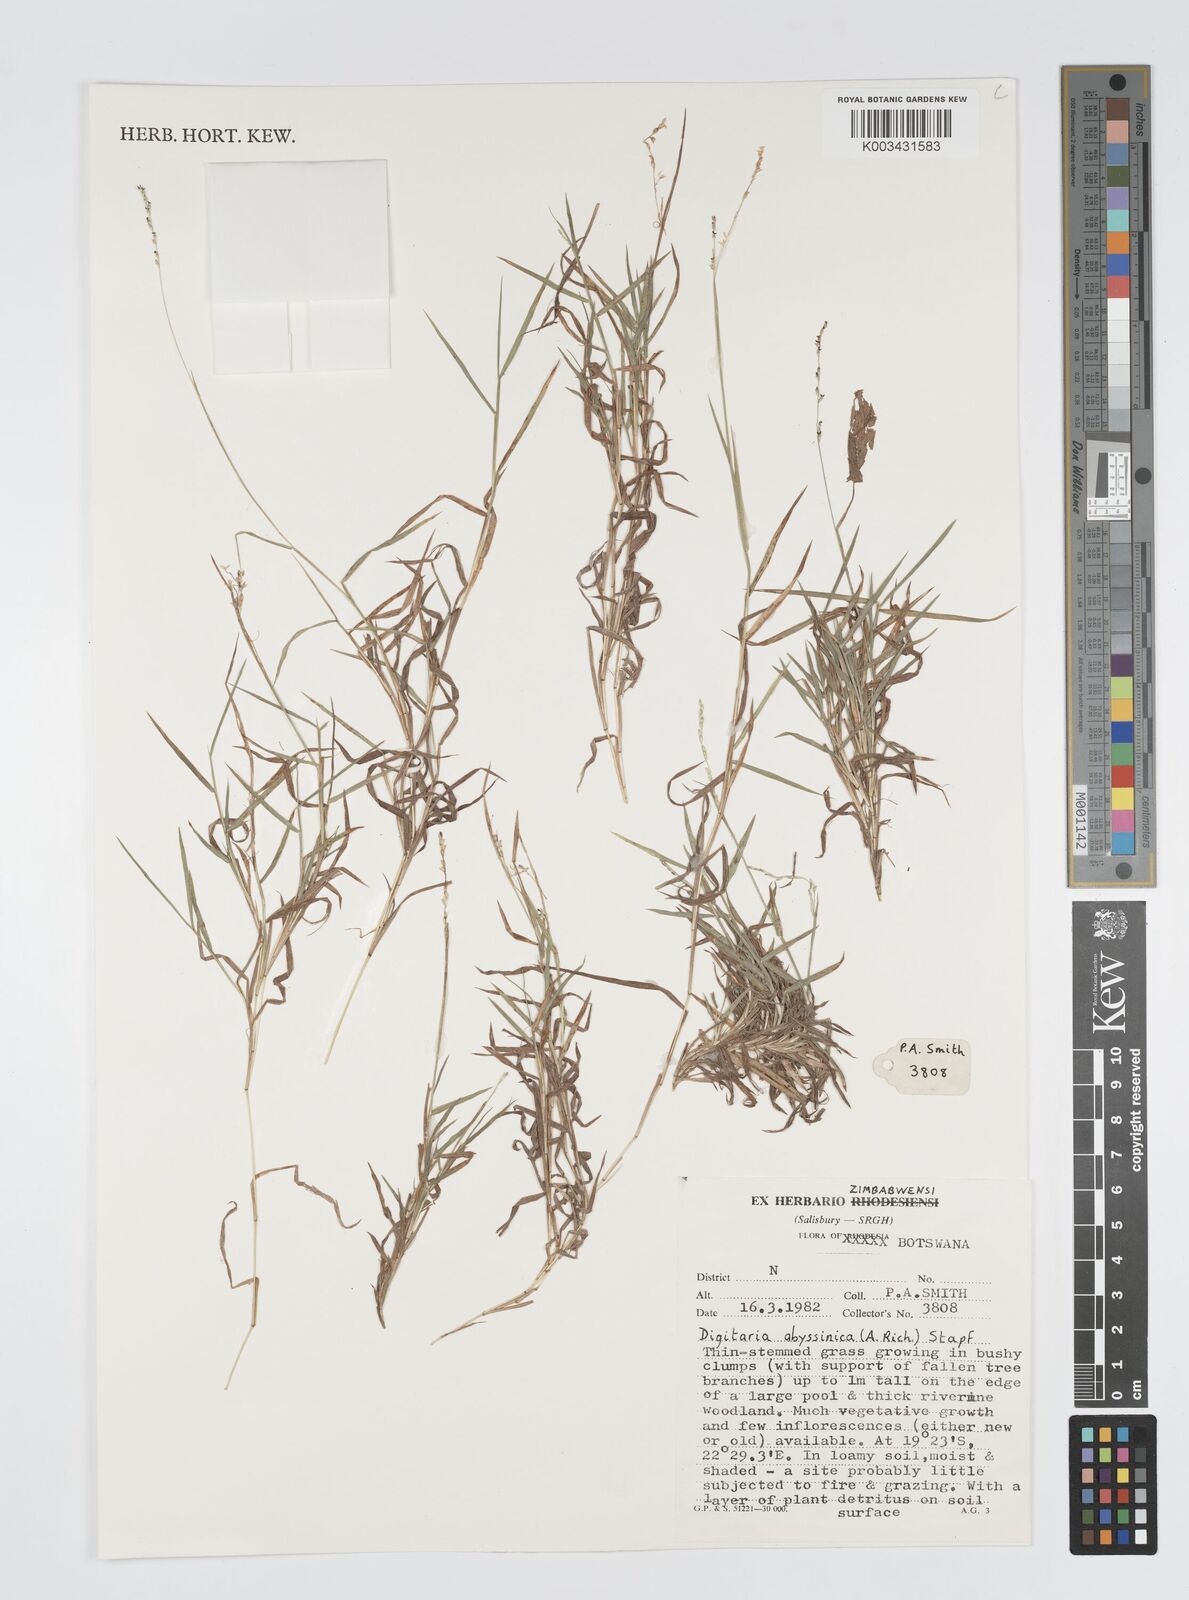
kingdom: Plantae
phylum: Tracheophyta
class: Liliopsida
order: Poales
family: Poaceae
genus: Digitaria
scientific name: Digitaria abyssinica
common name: African couchgrass
